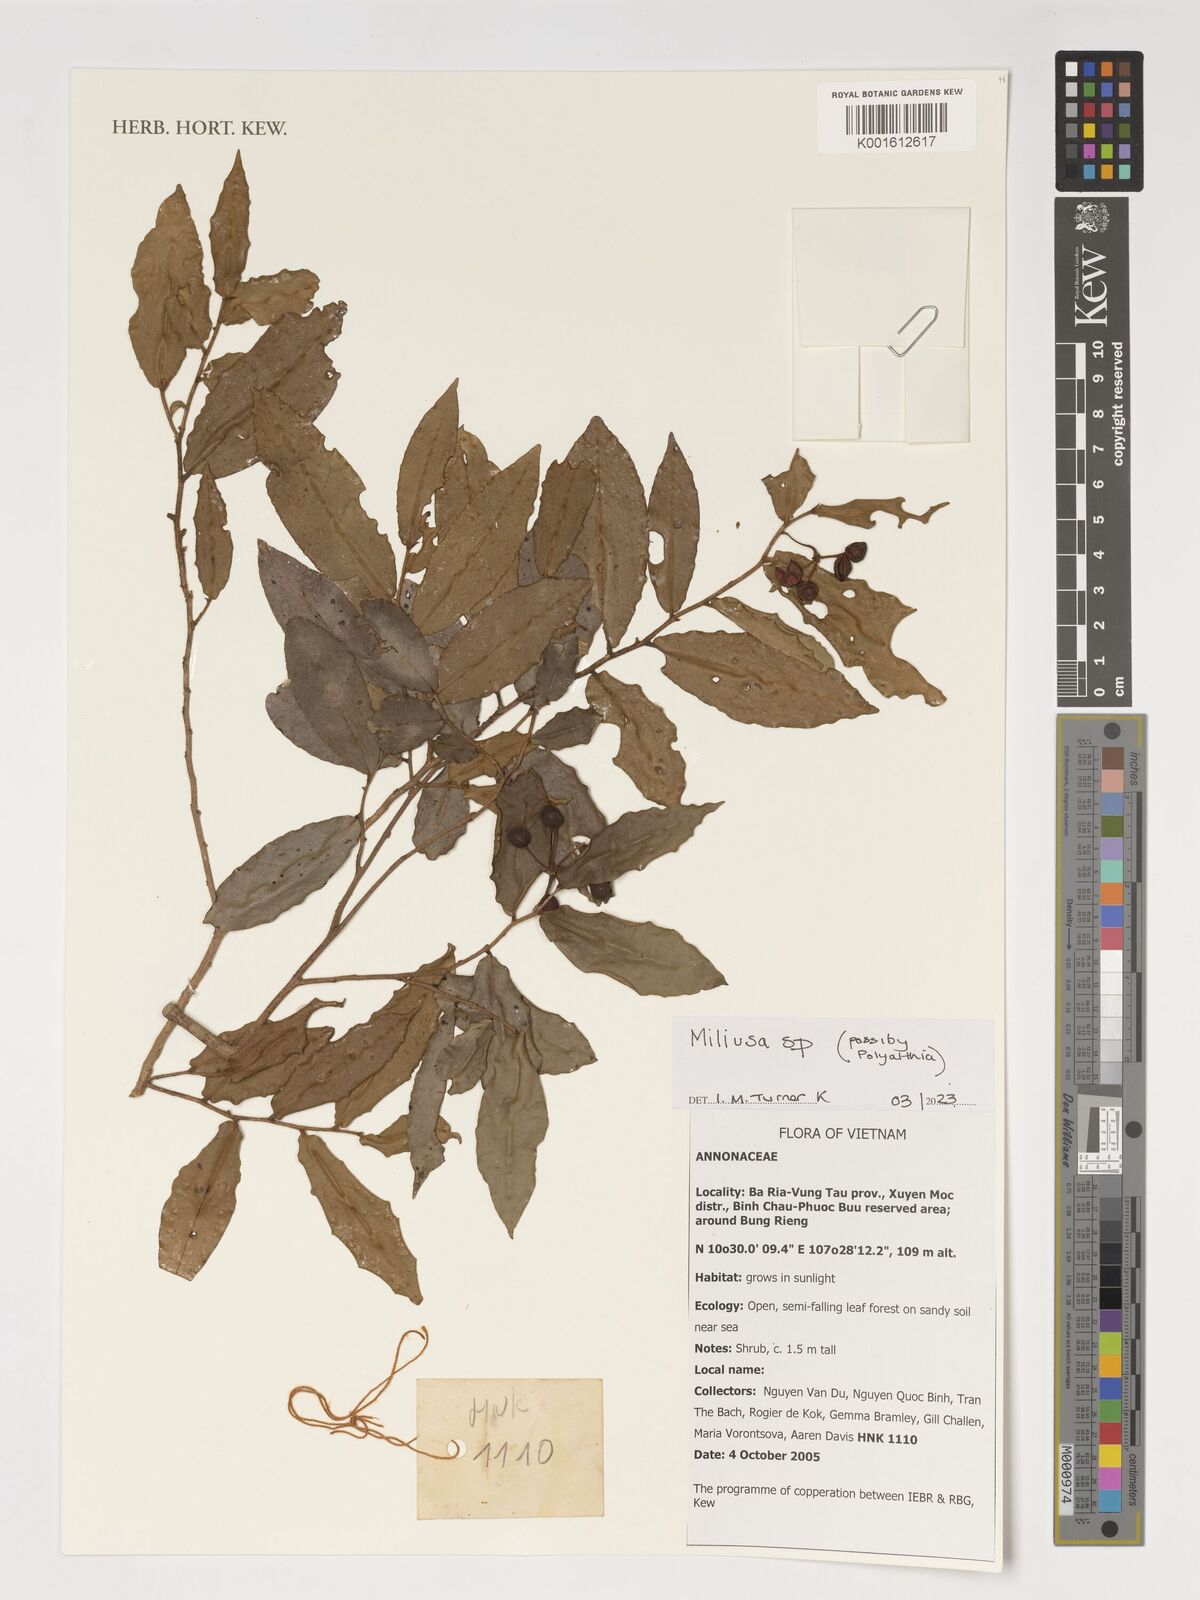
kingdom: Plantae
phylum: Tracheophyta
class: Magnoliopsida
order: Magnoliales
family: Annonaceae
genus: Miliusa
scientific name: Miliusa
